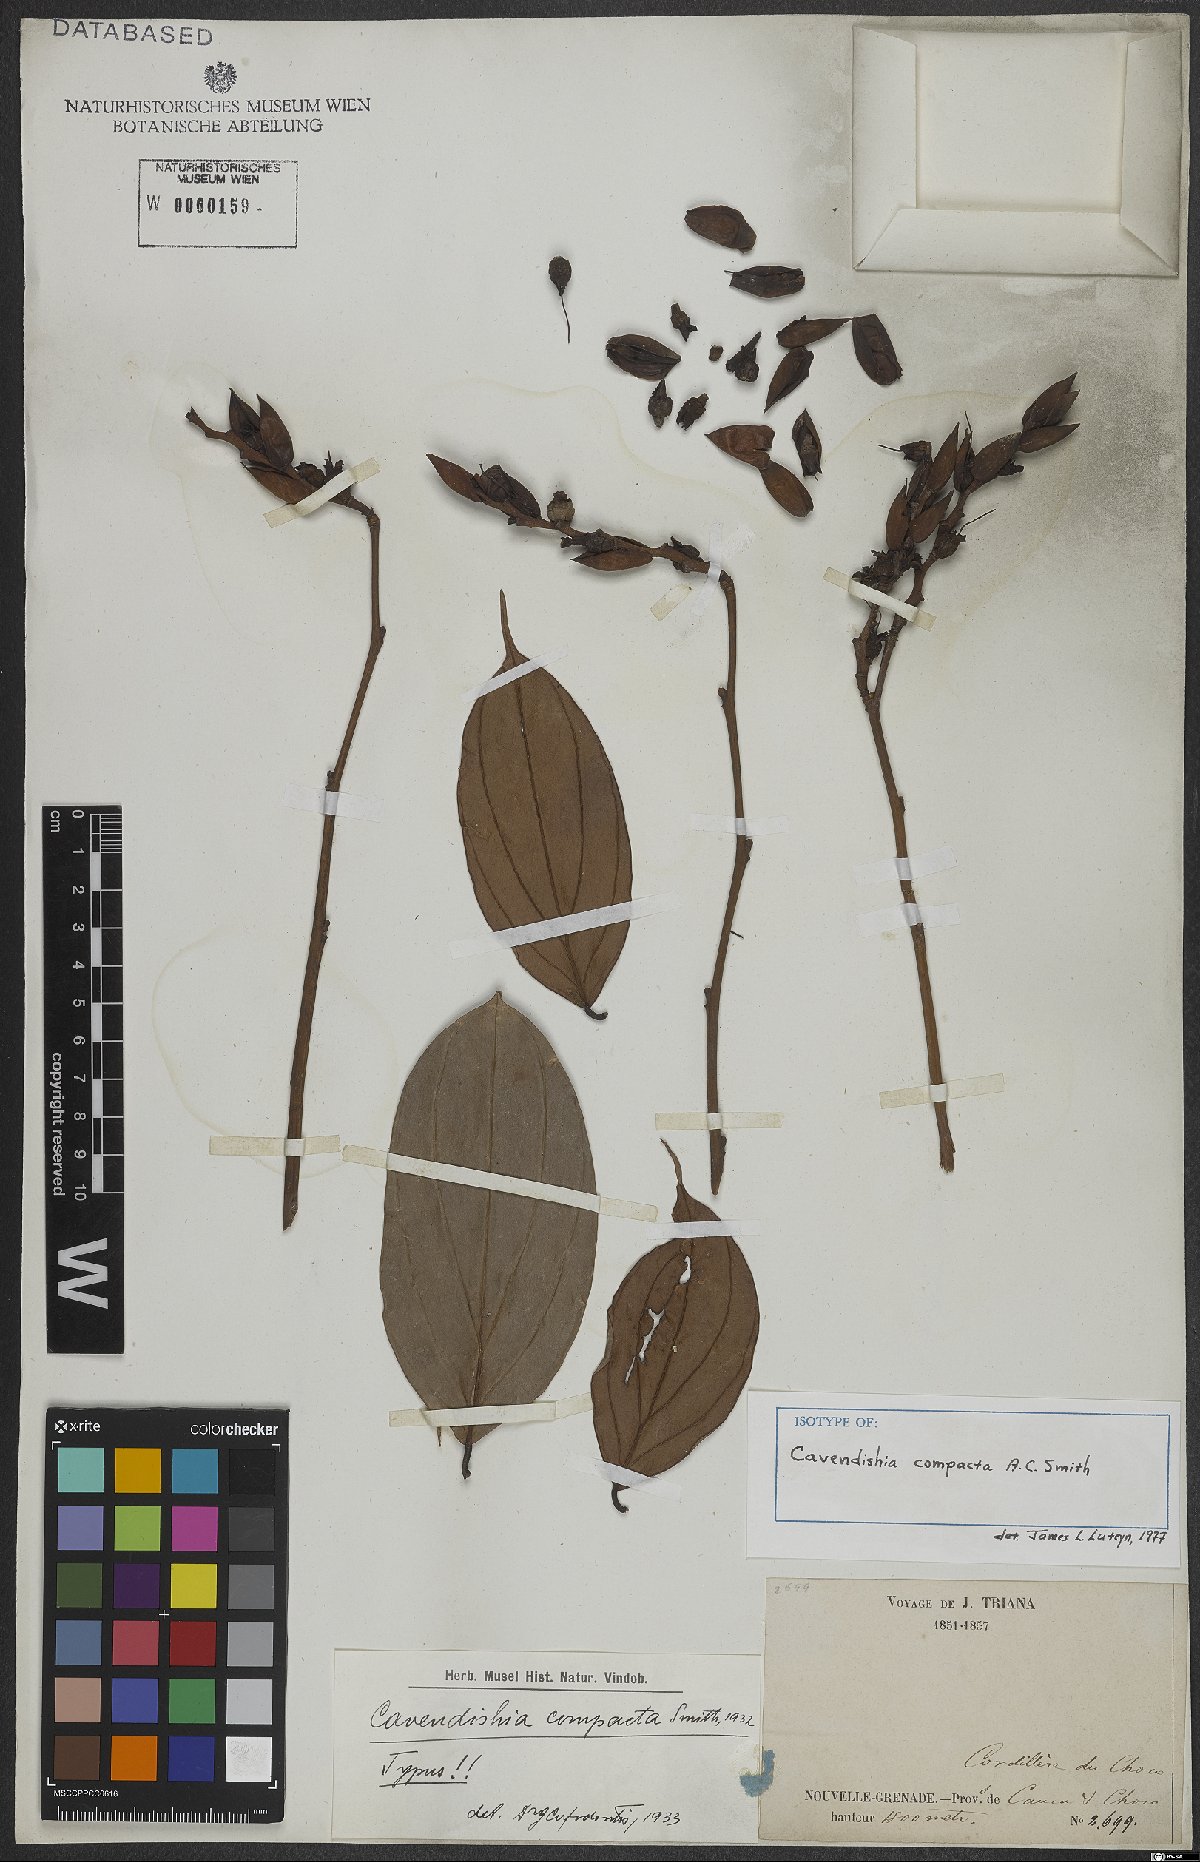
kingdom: Plantae
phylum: Tracheophyta
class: Magnoliopsida
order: Ericales
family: Ericaceae
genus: Cavendishia
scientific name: Cavendishia compacta
